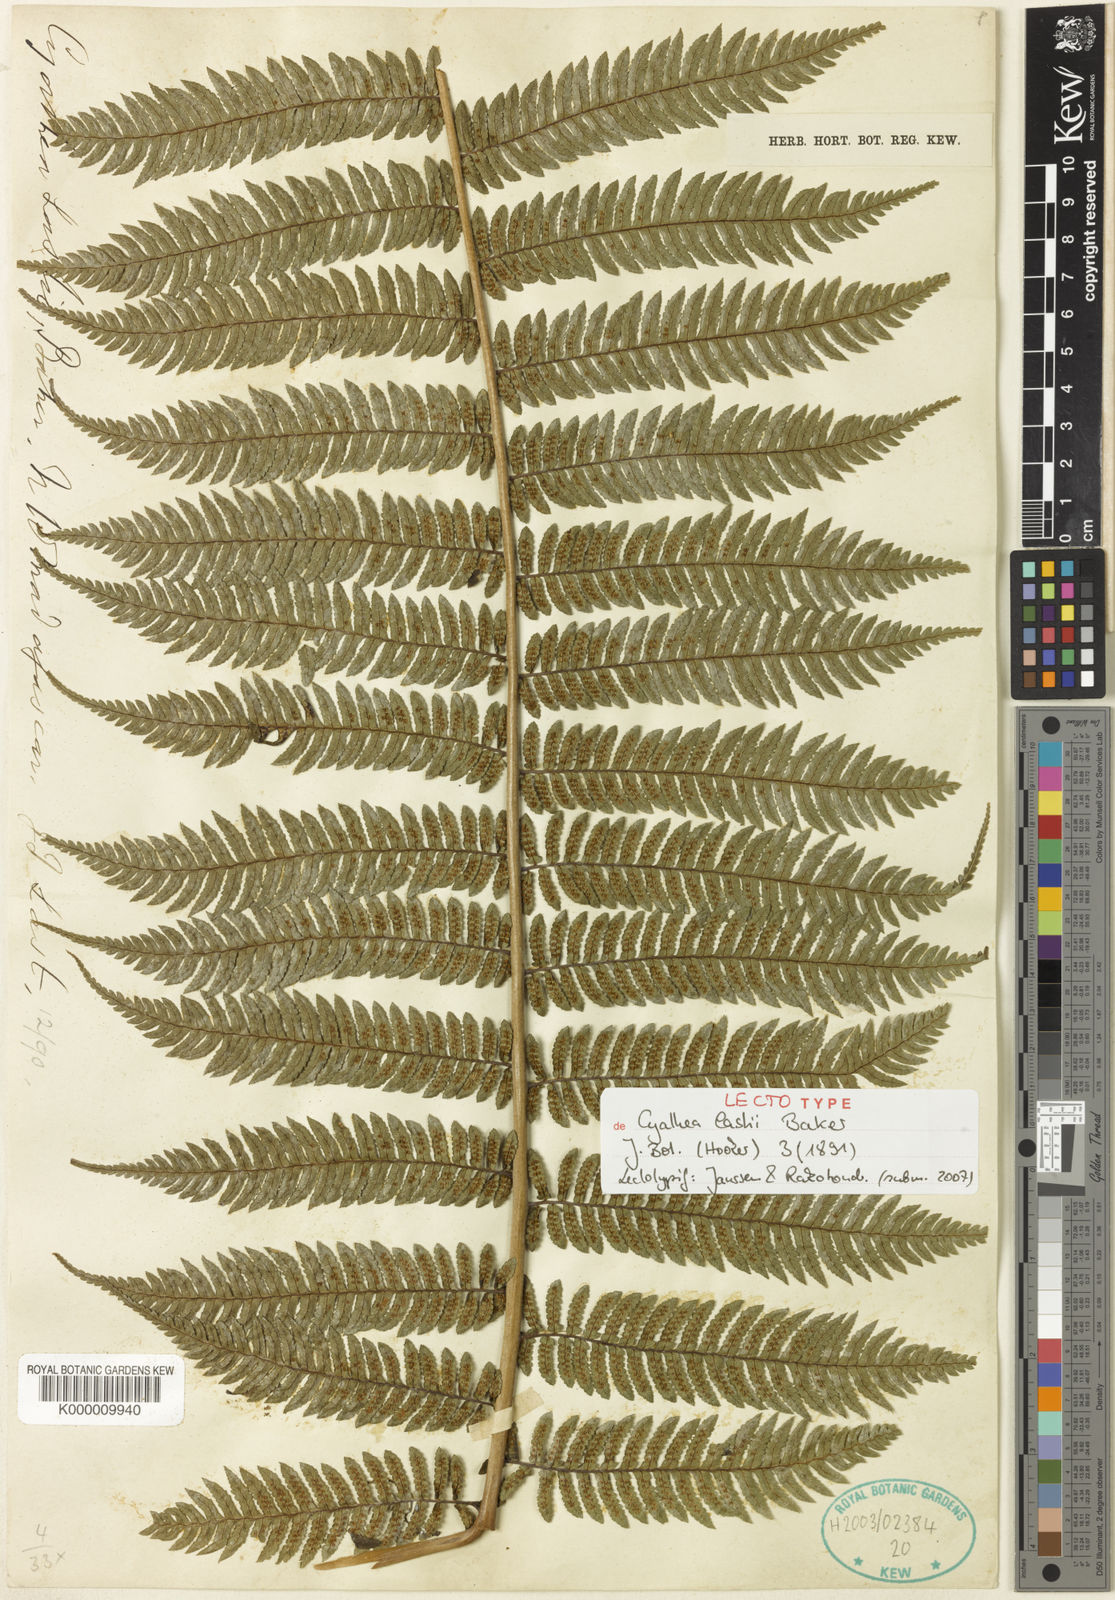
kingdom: Plantae
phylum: Tracheophyta
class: Polypodiopsida
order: Cyatheales
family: Cyatheaceae
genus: Alsophila
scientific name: Alsophila lastii
